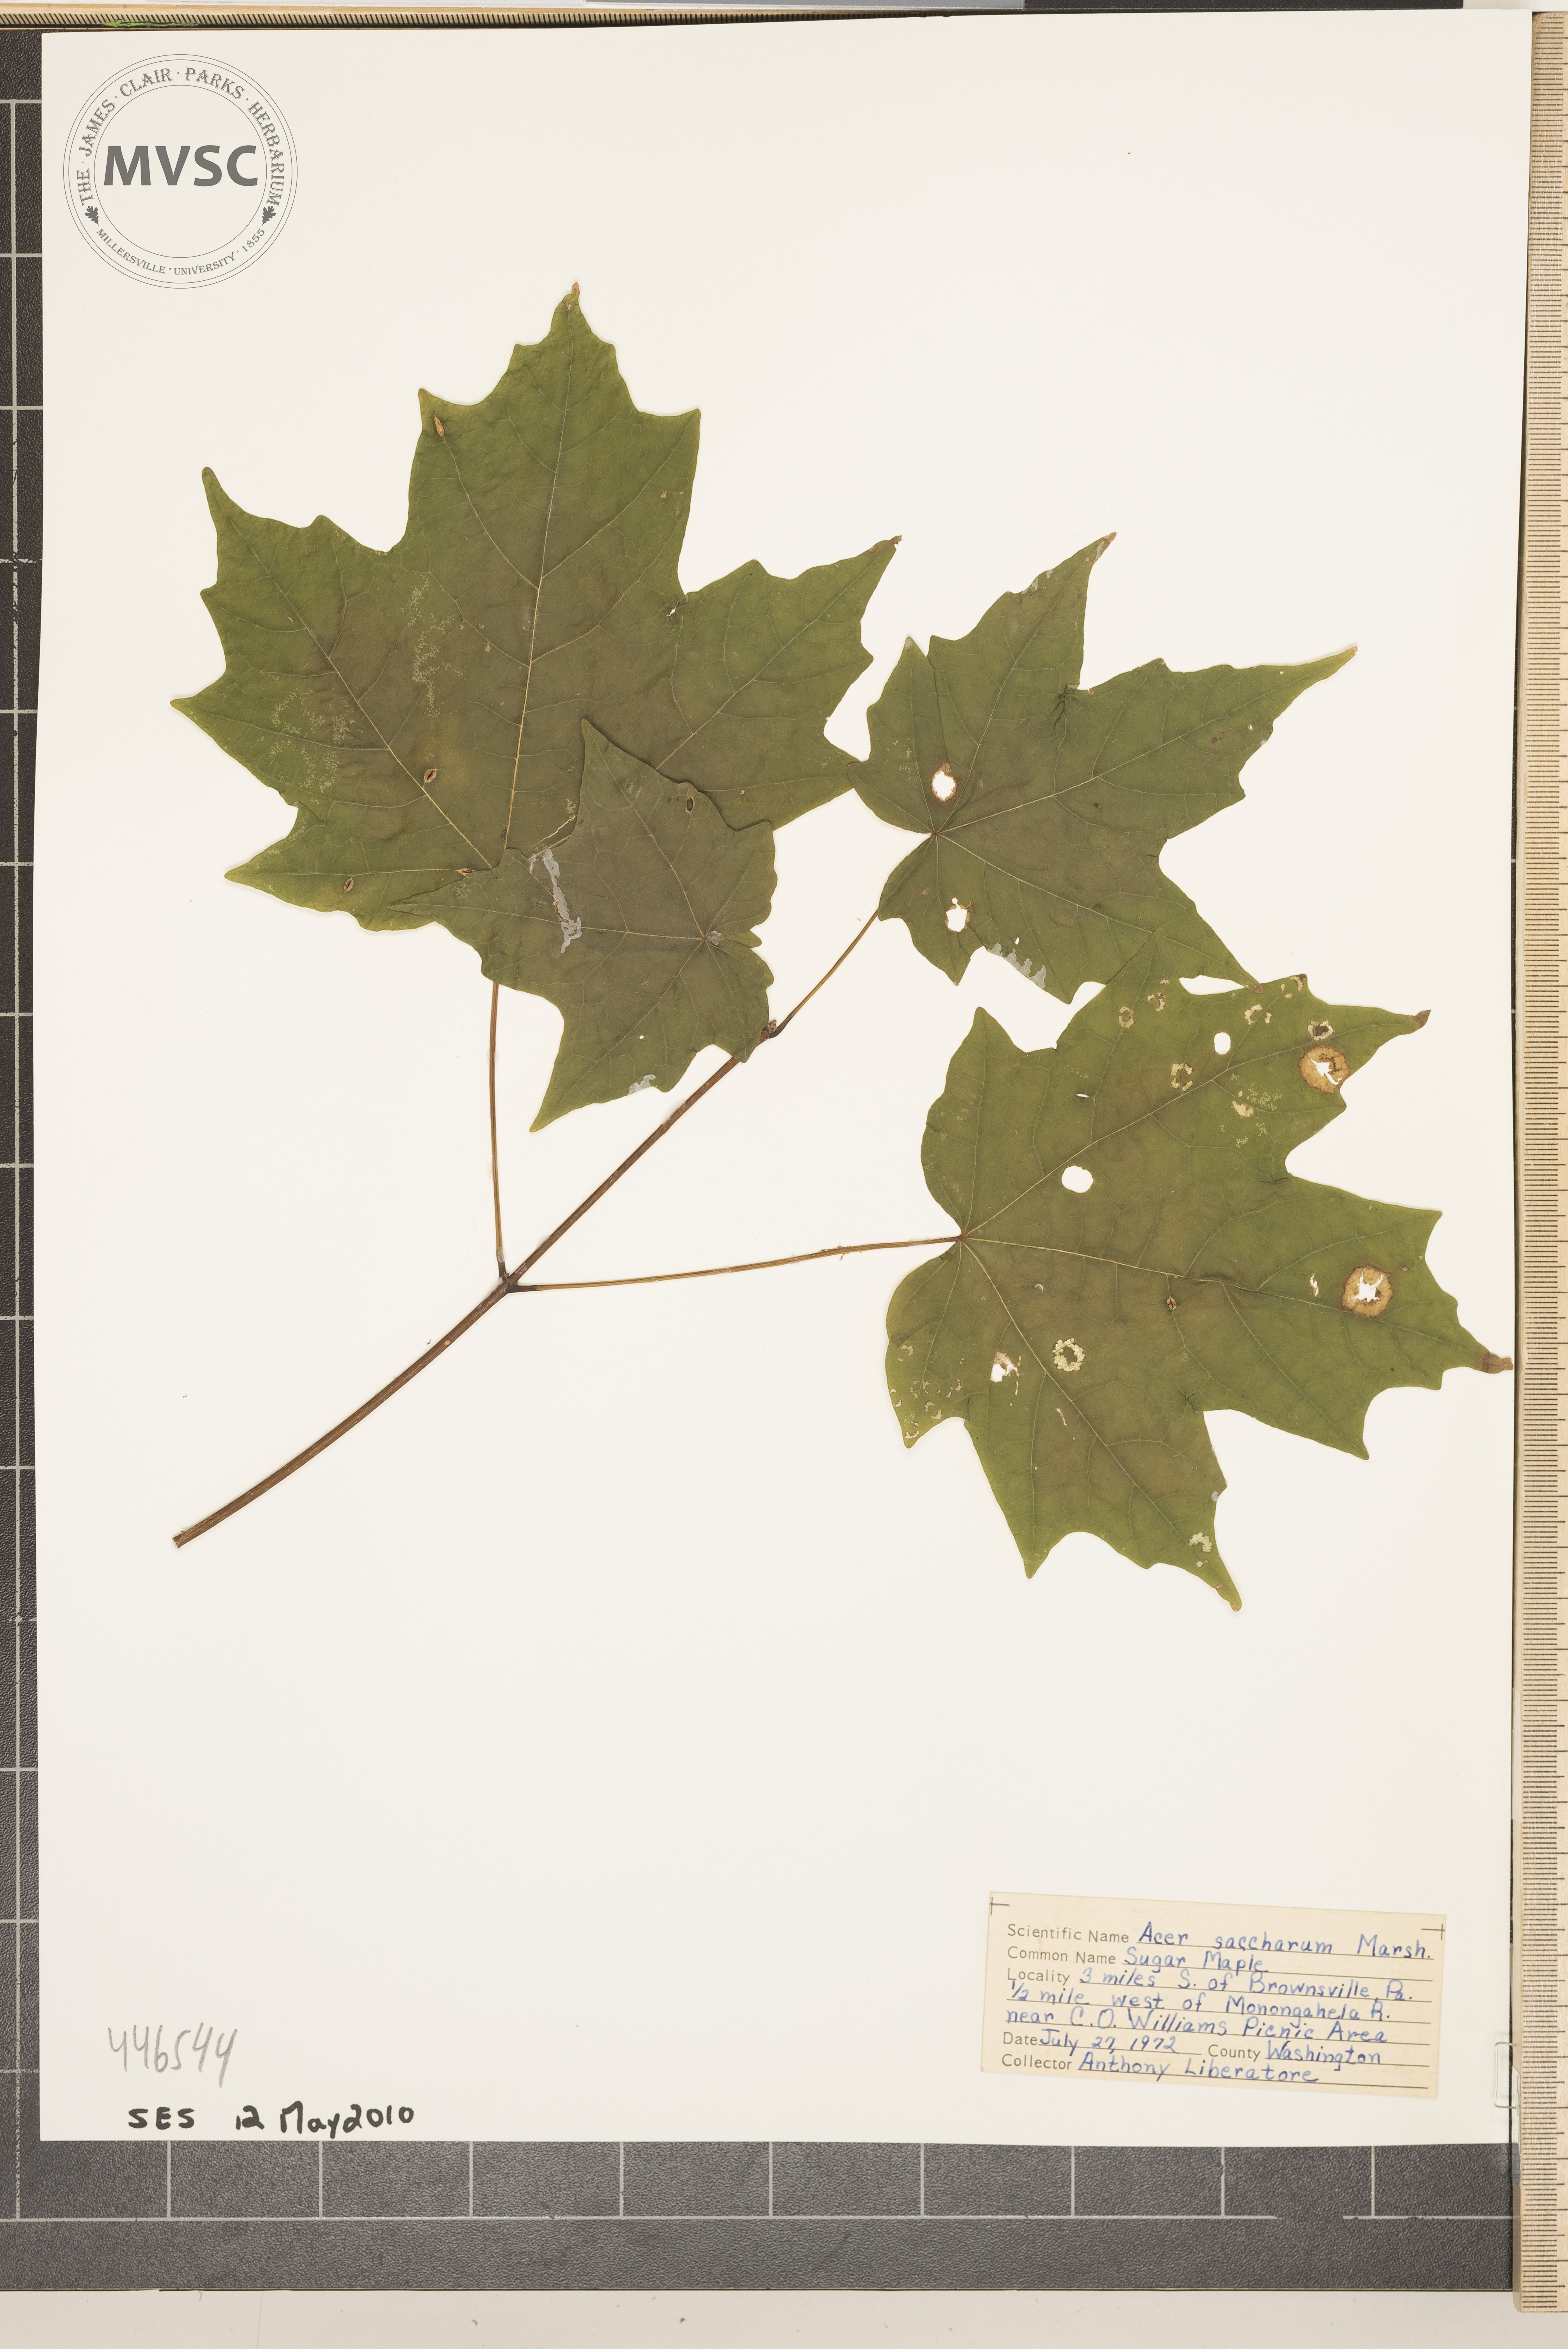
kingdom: Plantae
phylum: Tracheophyta
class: Magnoliopsida
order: Sapindales
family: Sapindaceae
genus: Acer
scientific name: Acer saccharum
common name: Sugar maple
